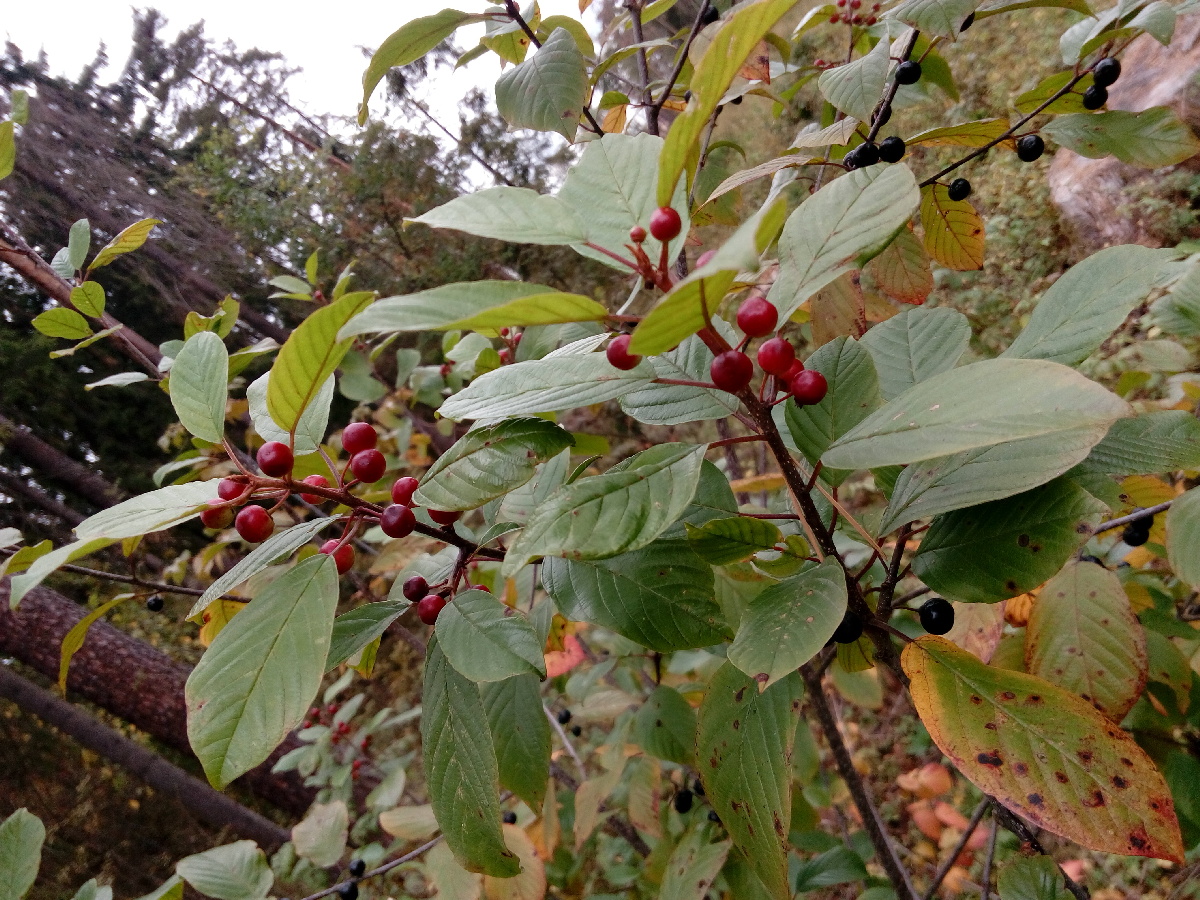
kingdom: Plantae
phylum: Tracheophyta
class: Magnoliopsida
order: Rosales
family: Rhamnaceae
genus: Frangula
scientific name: Frangula alnus
